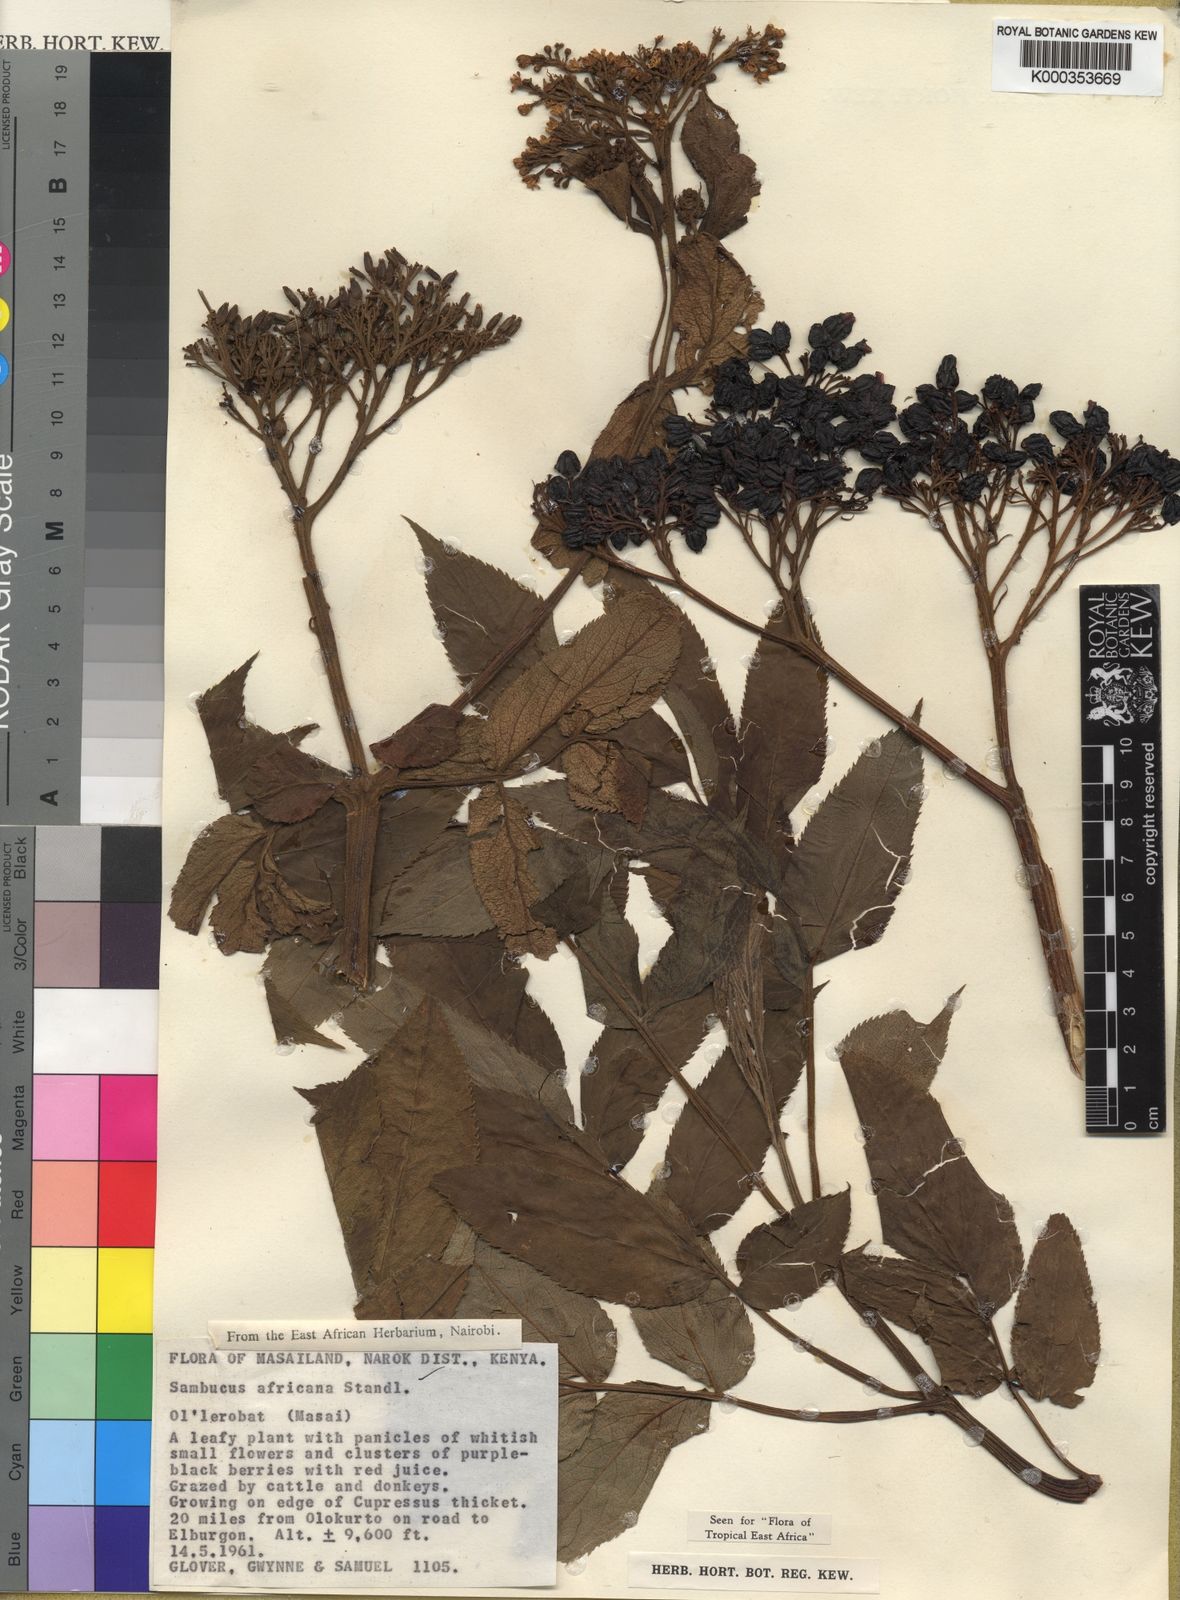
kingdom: Plantae
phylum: Tracheophyta
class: Magnoliopsida
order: Dipsacales
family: Viburnaceae
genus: Sambucus
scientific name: Sambucus africana
